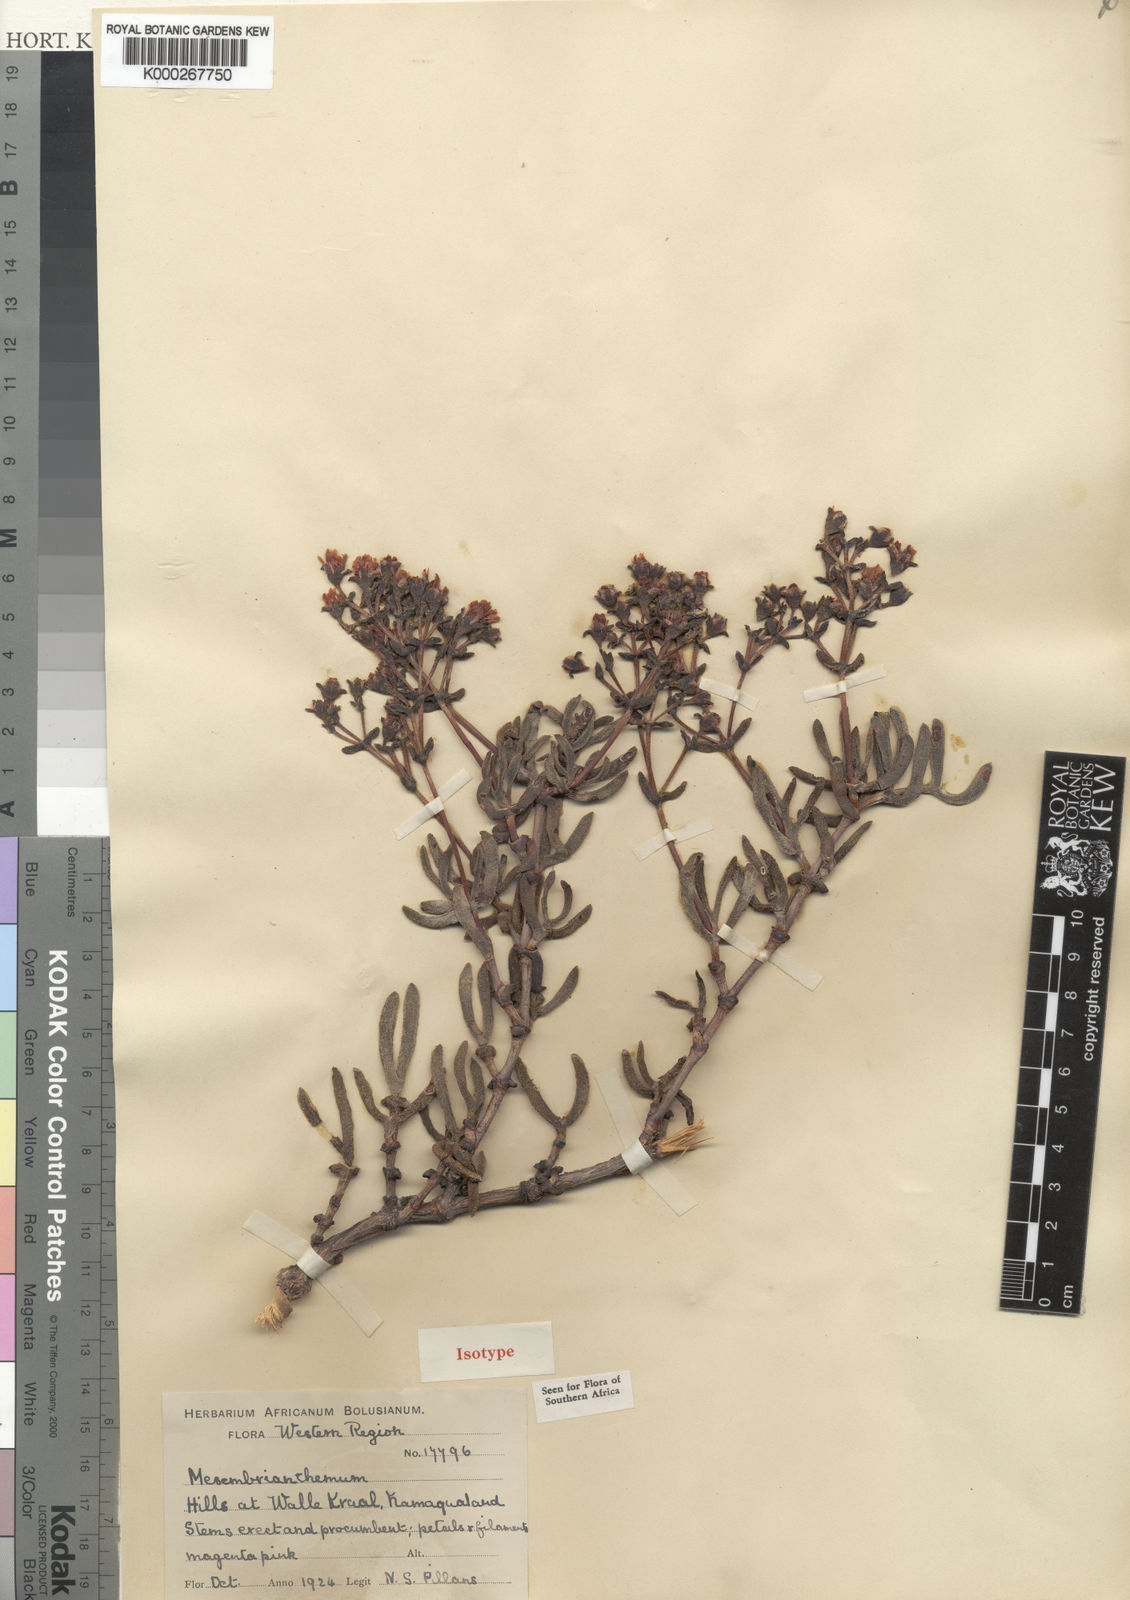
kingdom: Plantae
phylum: Tracheophyta
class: Magnoliopsida
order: Caryophyllales
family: Aizoaceae
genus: Antimima
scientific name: Antimima maleolens
